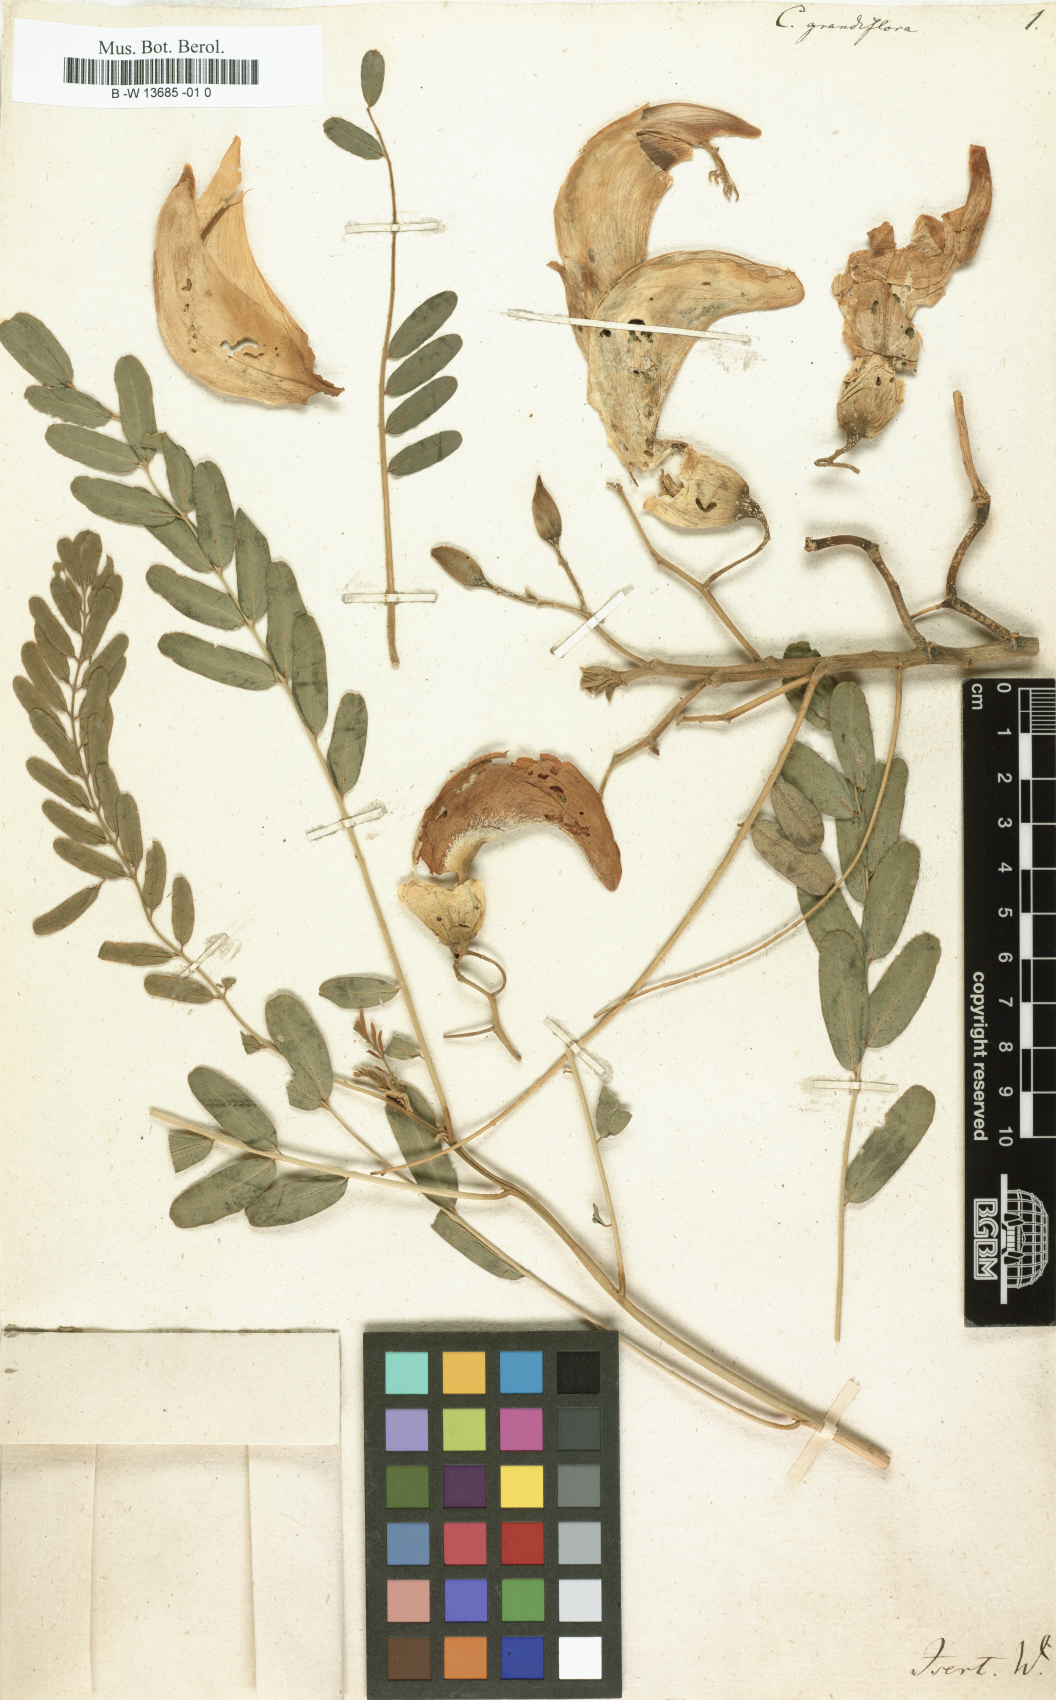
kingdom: Plantae
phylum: Tracheophyta
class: Magnoliopsida
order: Fabales
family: Fabaceae
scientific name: Fabaceae
